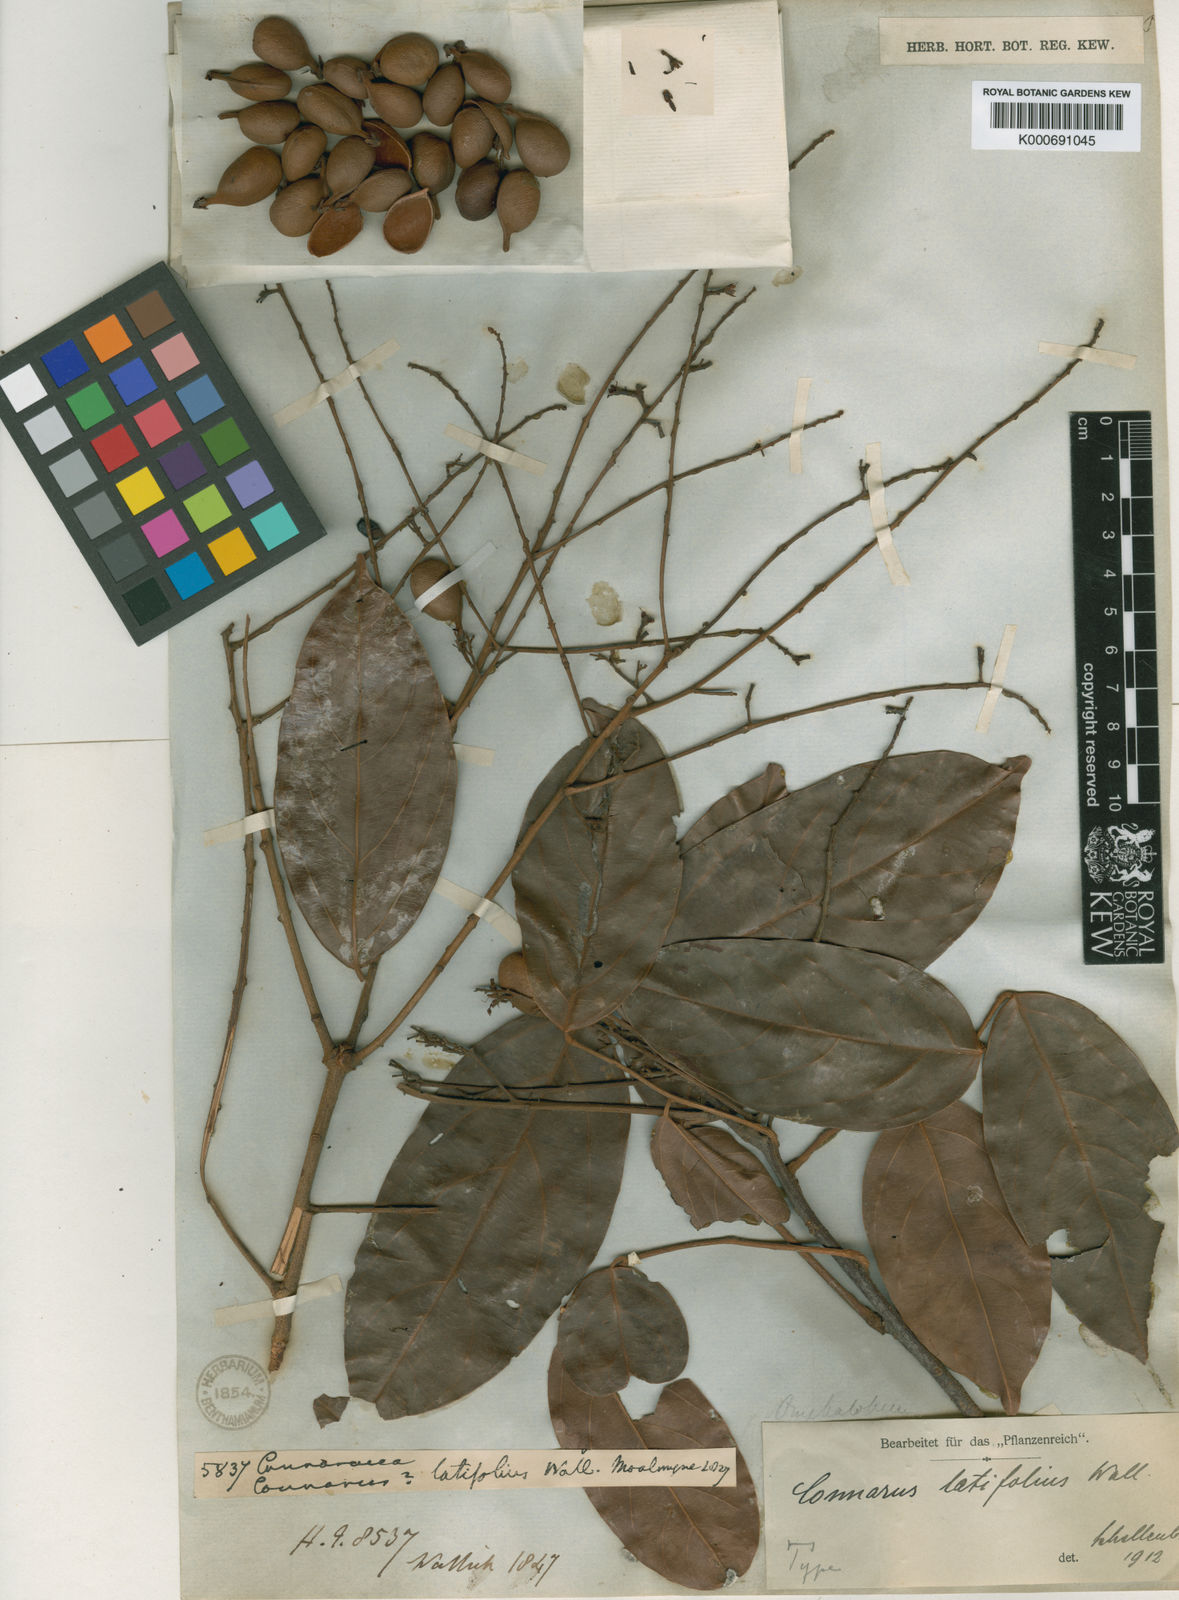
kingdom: Plantae
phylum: Tracheophyta
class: Magnoliopsida
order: Oxalidales
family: Connaraceae
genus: Connarus
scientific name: Connarus
